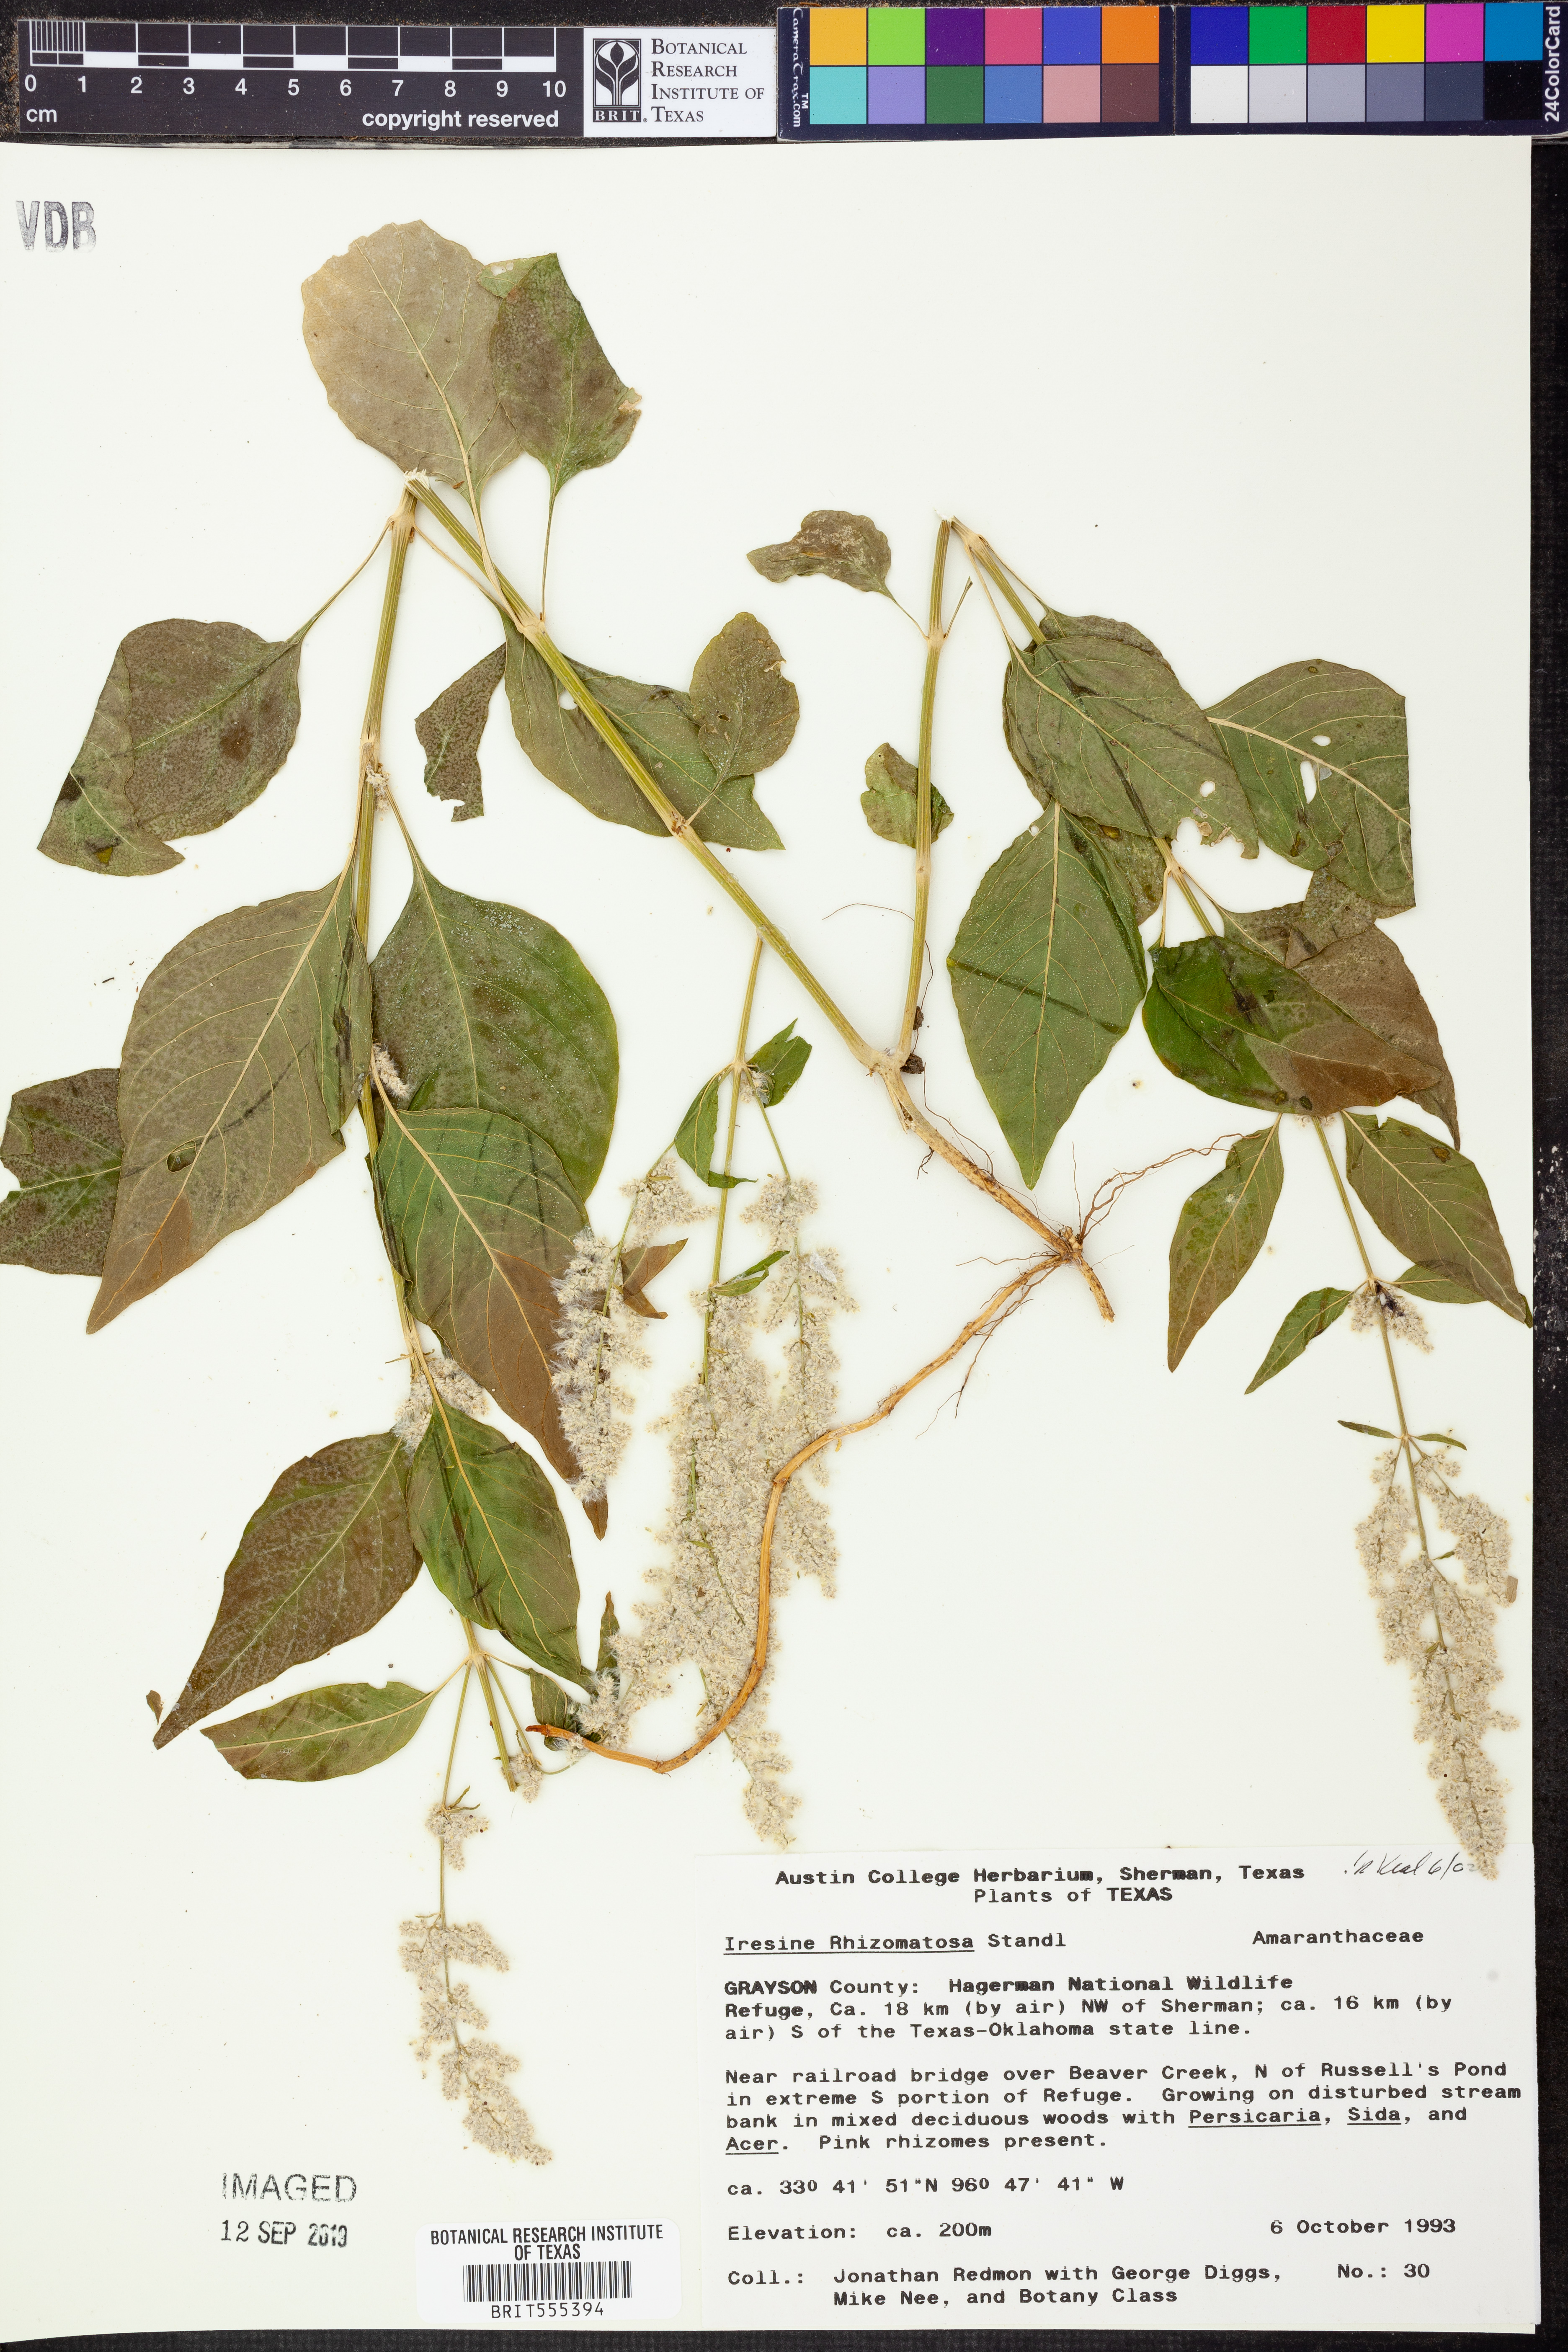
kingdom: Plantae
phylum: Tracheophyta
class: Magnoliopsida
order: Caryophyllales
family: Amaranthaceae
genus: Iresine
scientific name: Iresine rhizomatosa
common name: Juda's-bush
